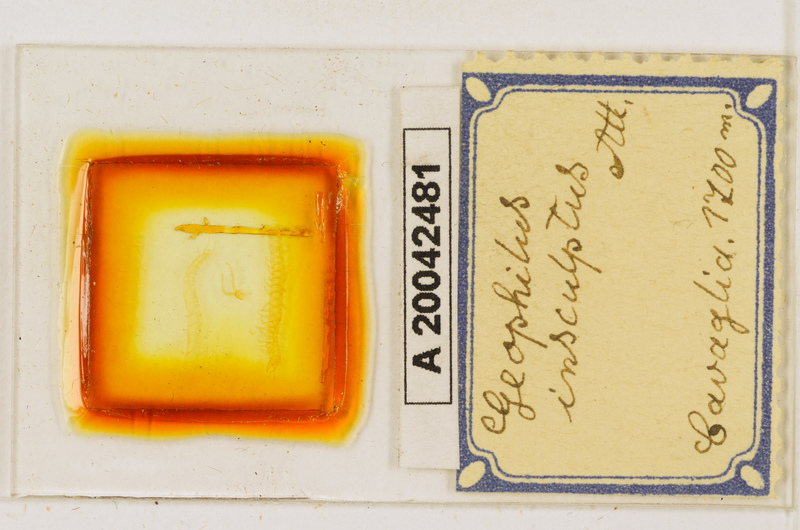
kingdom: Animalia
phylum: Arthropoda
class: Chilopoda
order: Geophilomorpha
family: Geophilidae
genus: Geophilus
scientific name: Geophilus insculptus
